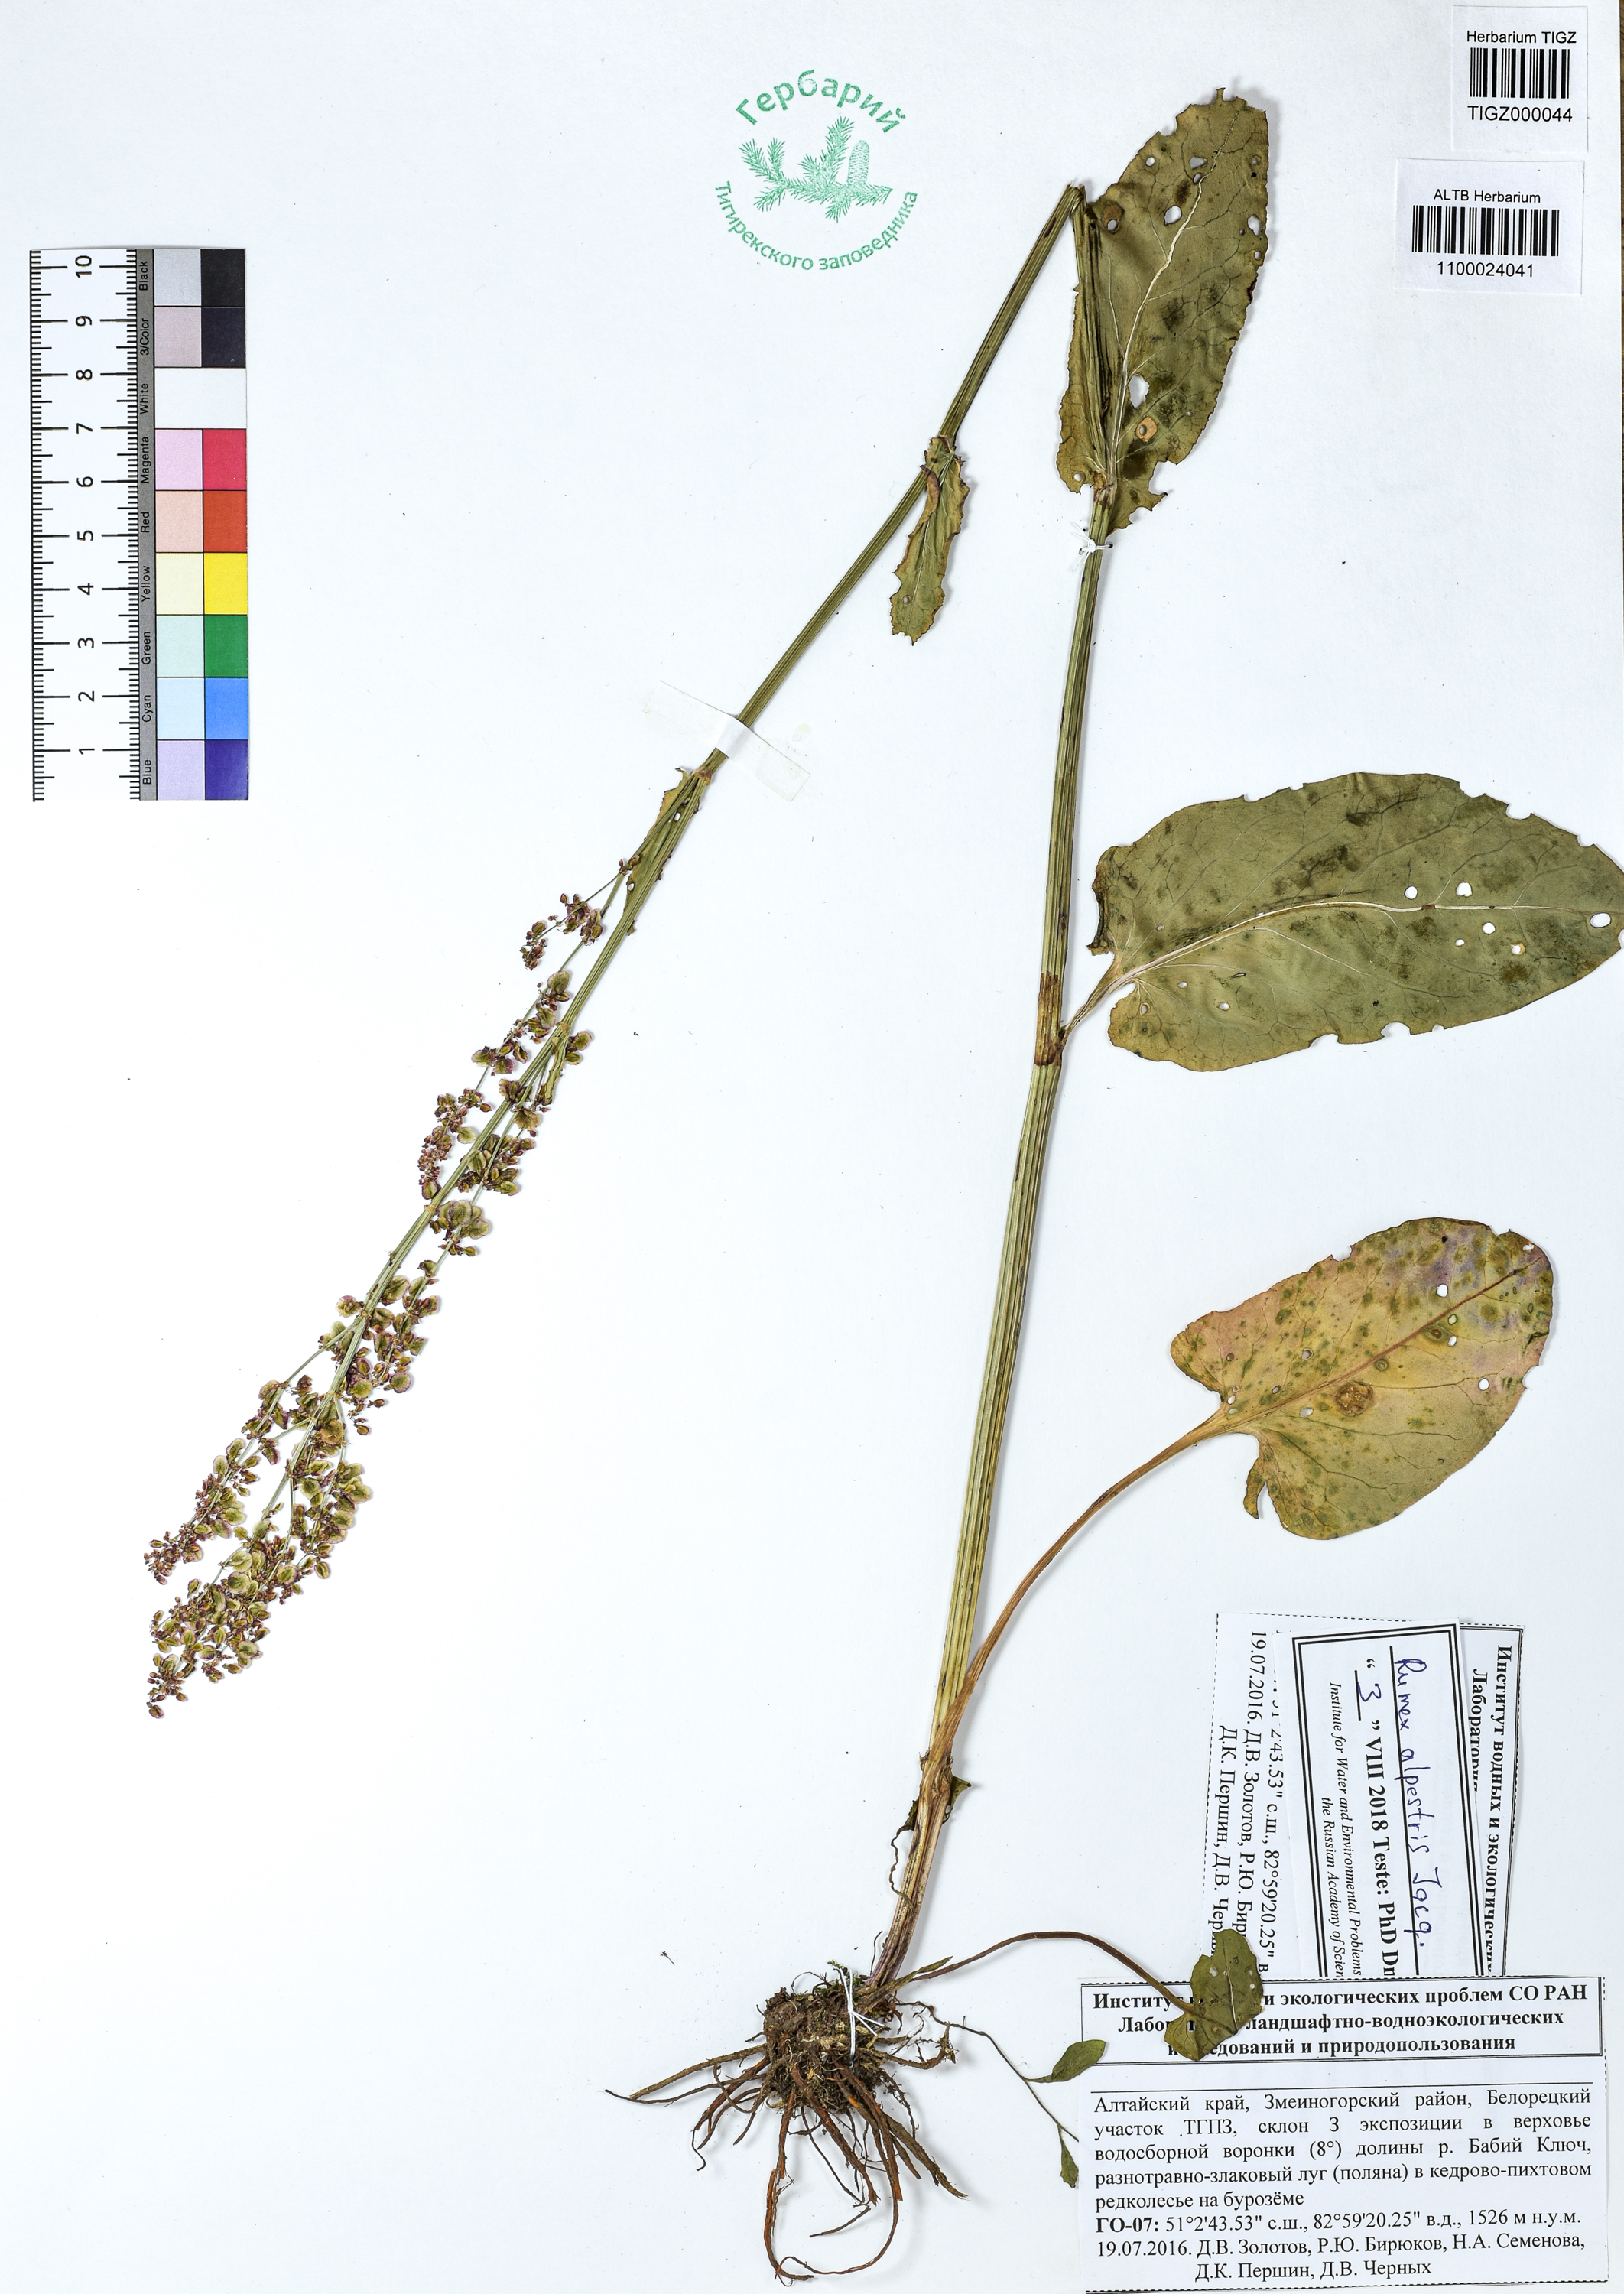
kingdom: Plantae
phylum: Tracheophyta
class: Magnoliopsida
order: Caryophyllales
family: Polygonaceae
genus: Rumex
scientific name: Rumex scutatus
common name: French sorrel
